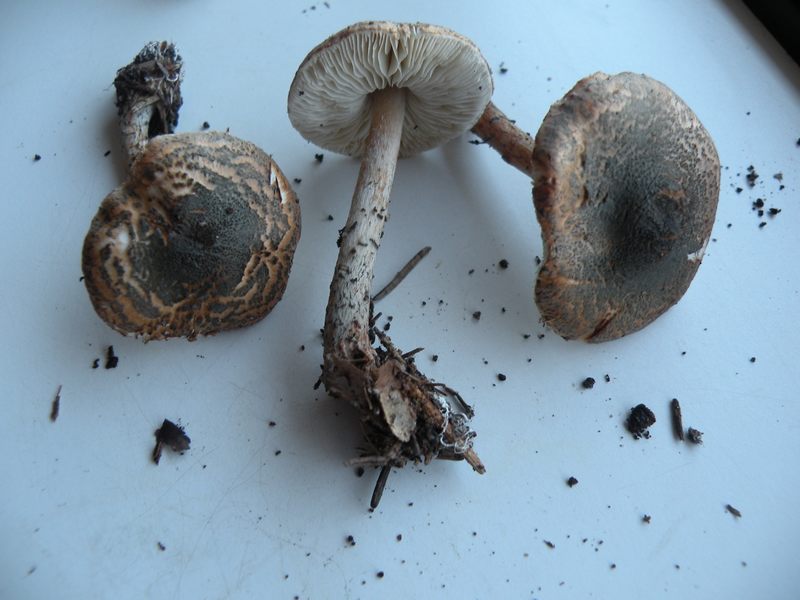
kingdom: Fungi
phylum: Basidiomycota
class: Agaricomycetes
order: Agaricales
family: Agaricaceae
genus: Lepiota
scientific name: Lepiota grangei
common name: grønskællet parasolhat
